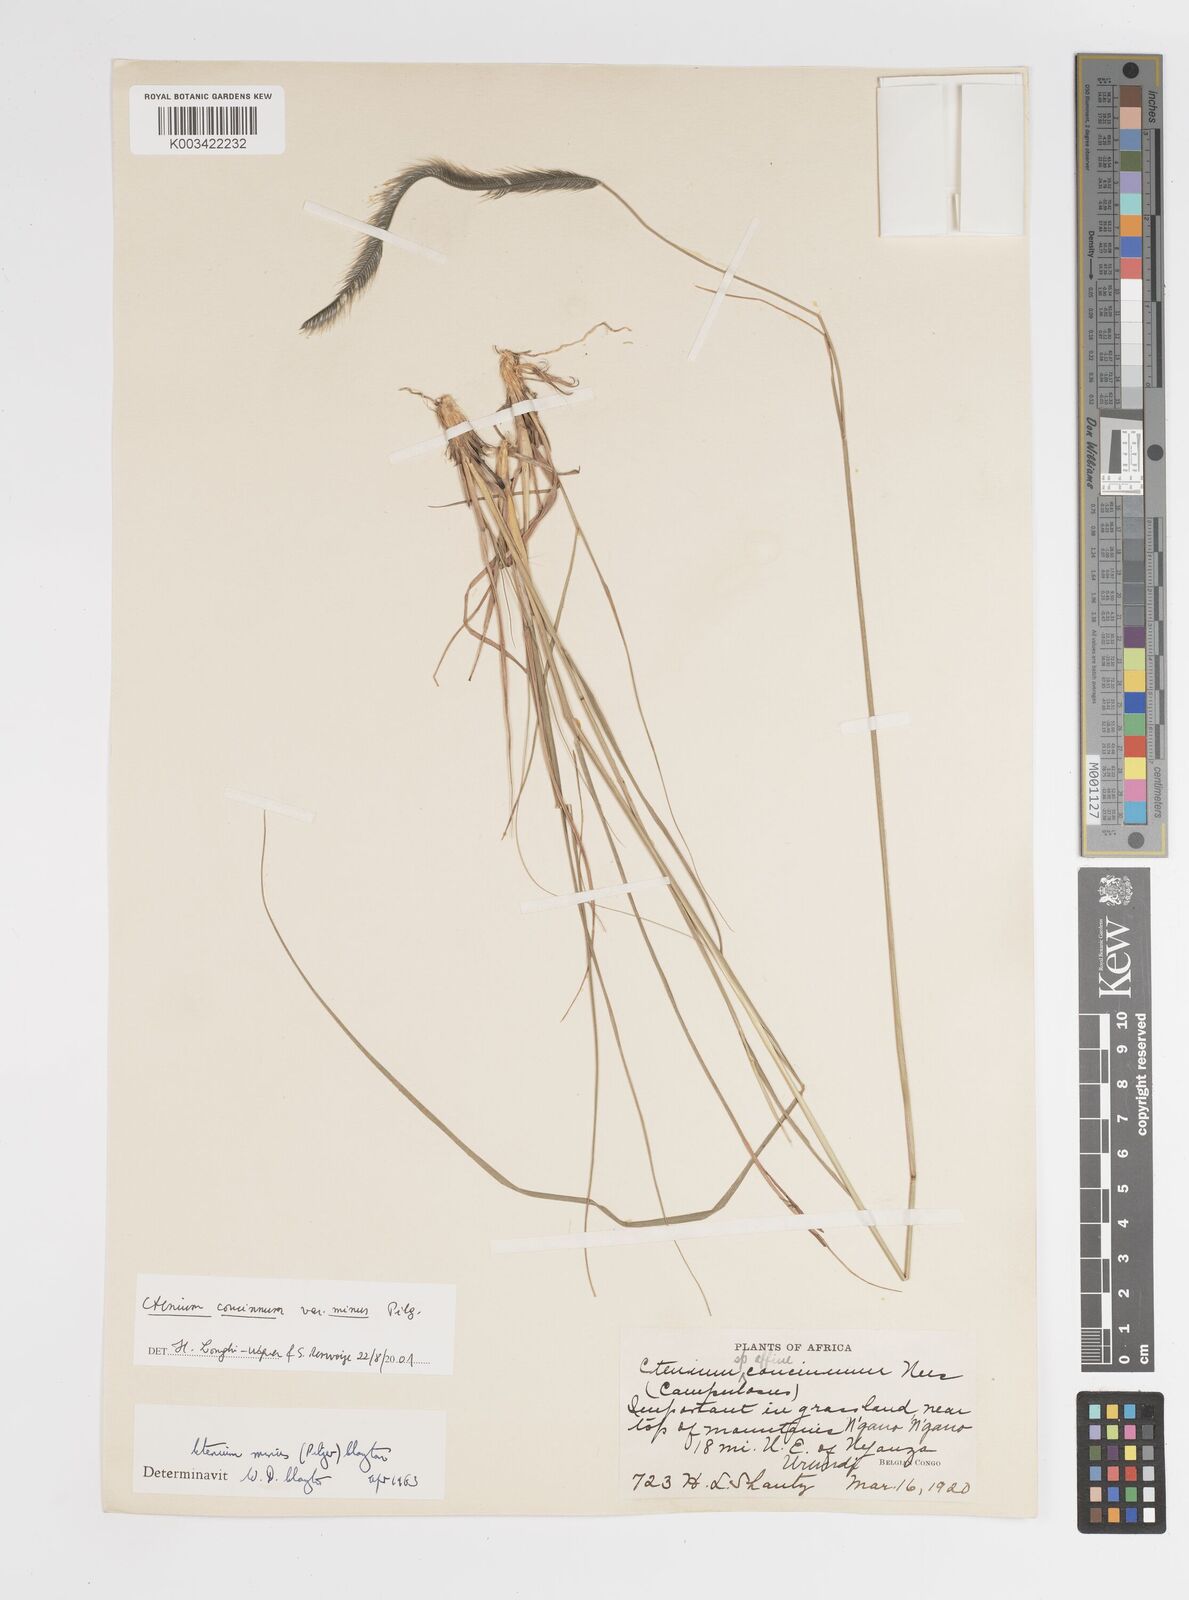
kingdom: Plantae
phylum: Tracheophyta
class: Liliopsida
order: Poales
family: Poaceae
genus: Ctenium
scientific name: Ctenium concinnum
